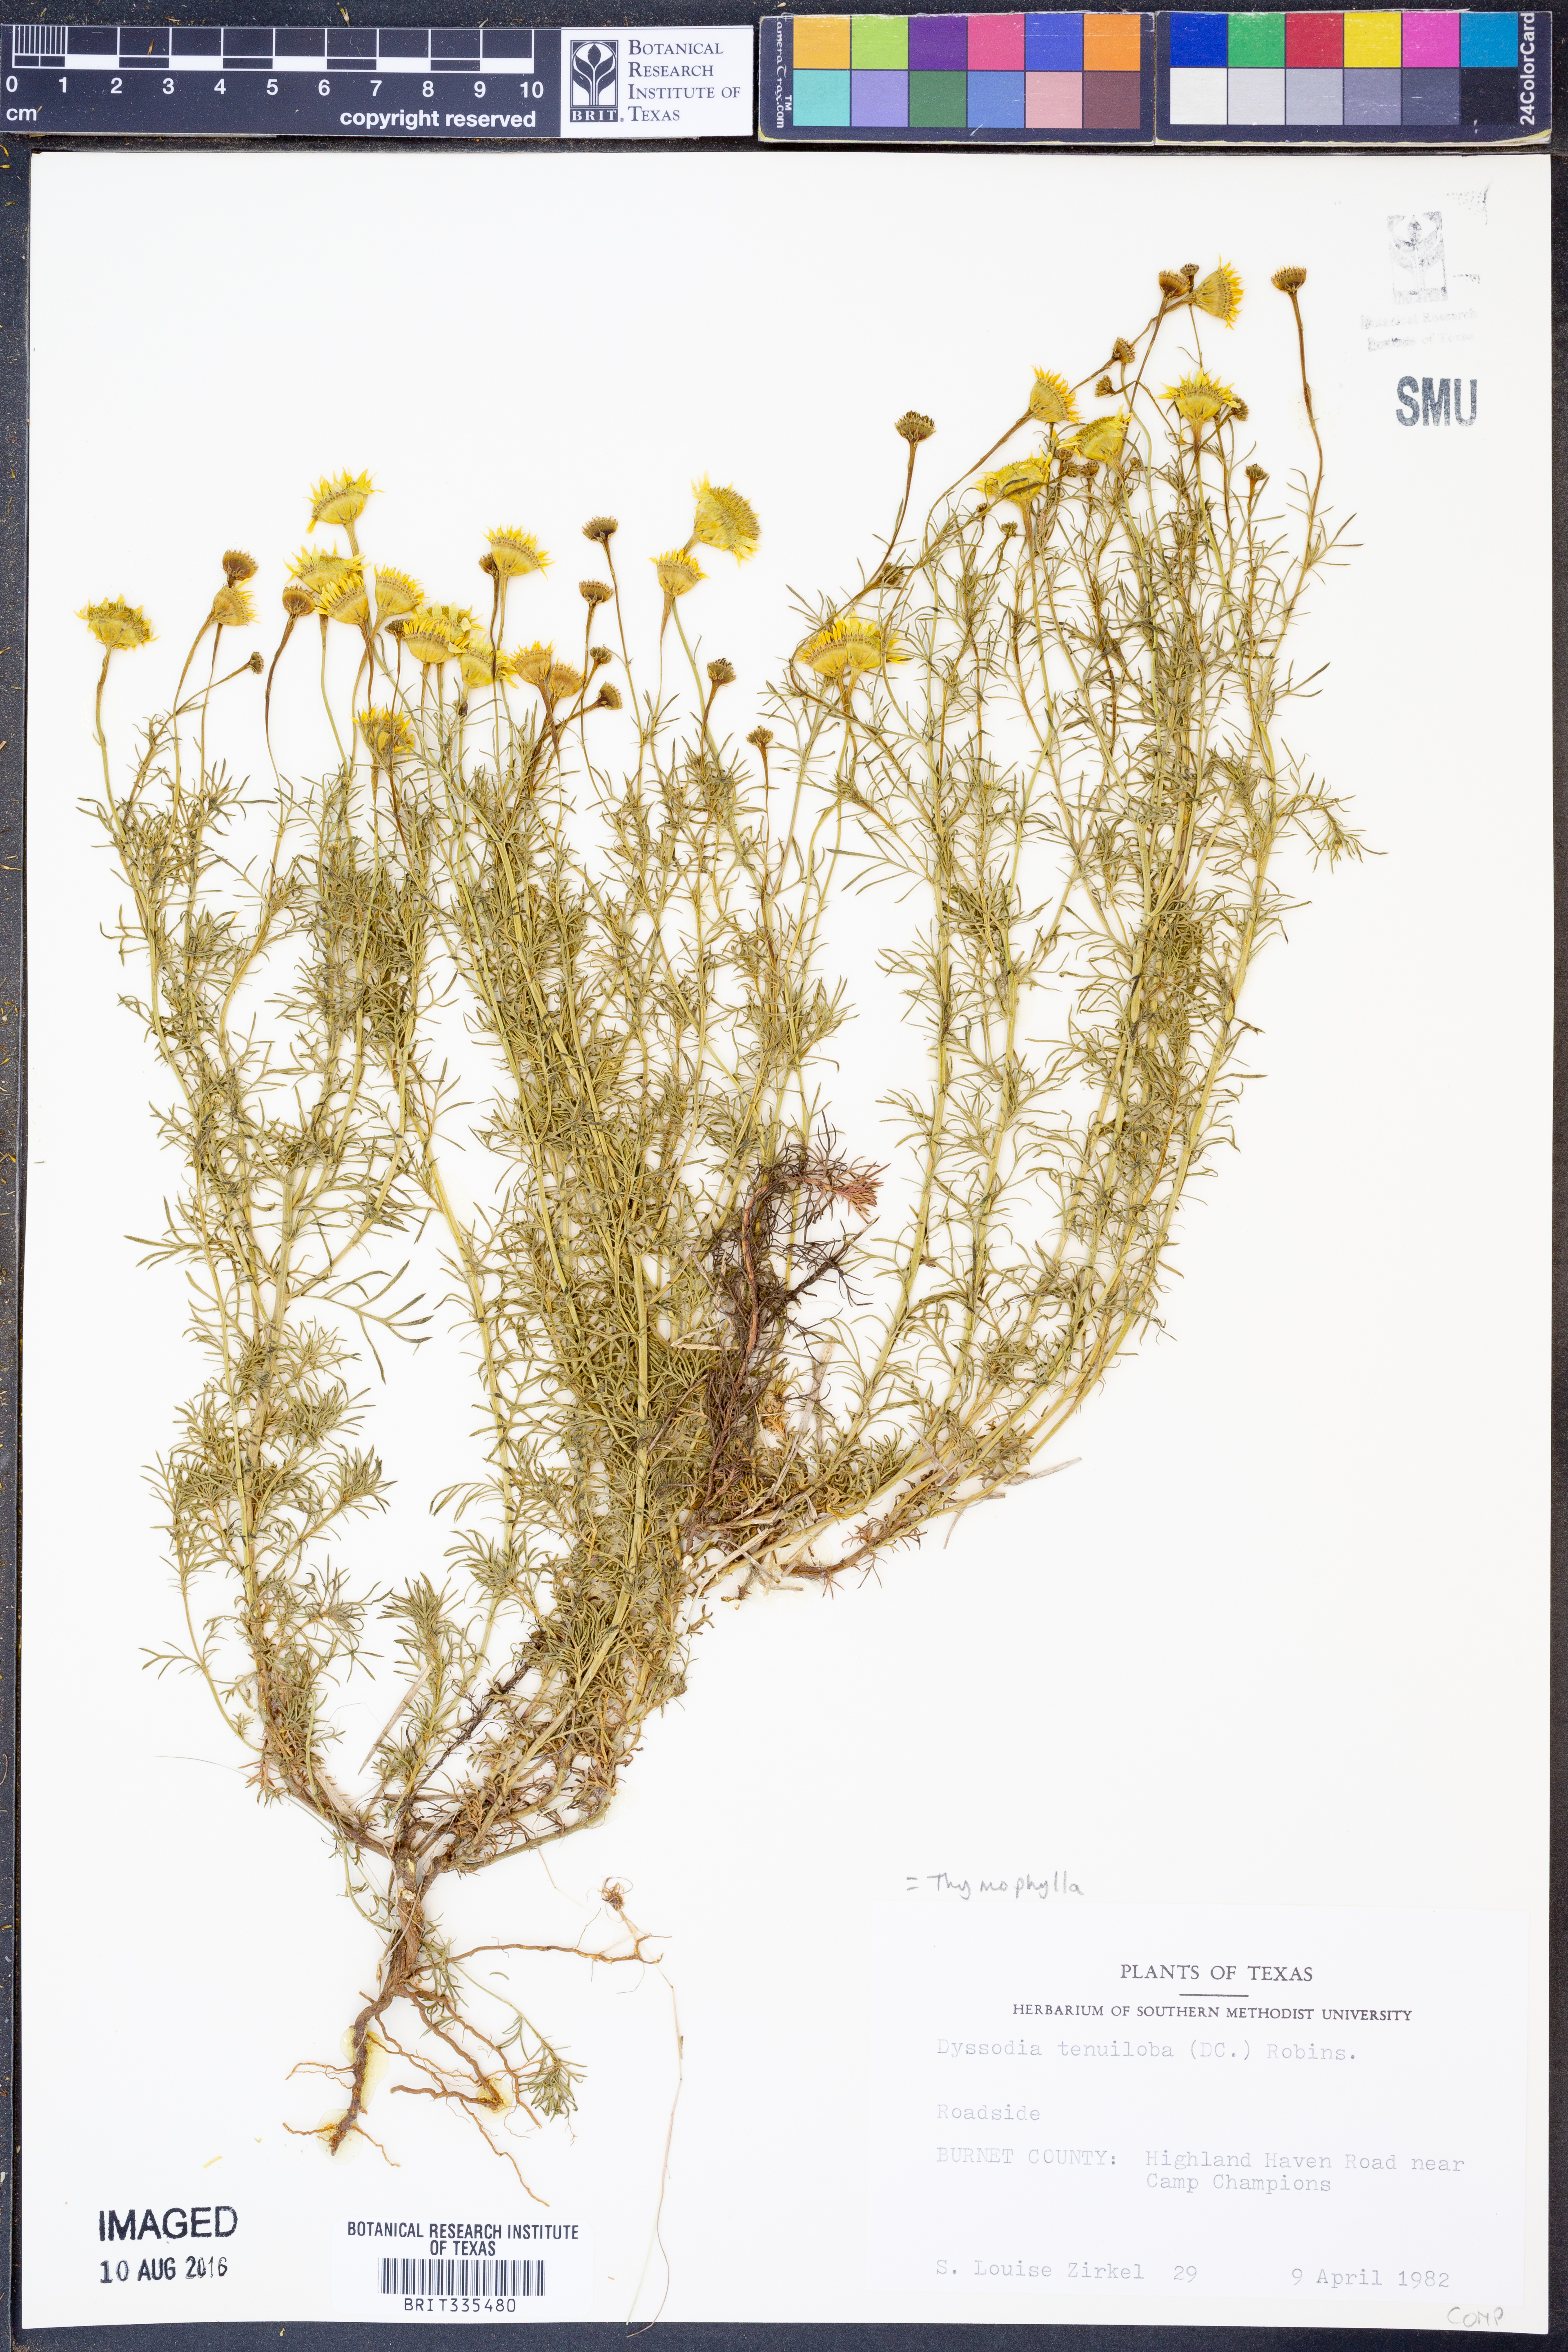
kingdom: Plantae
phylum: Tracheophyta
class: Magnoliopsida
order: Asterales
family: Asteraceae
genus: Thymophylla
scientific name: Thymophylla tenuiloba
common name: Dahlberg's daisy
